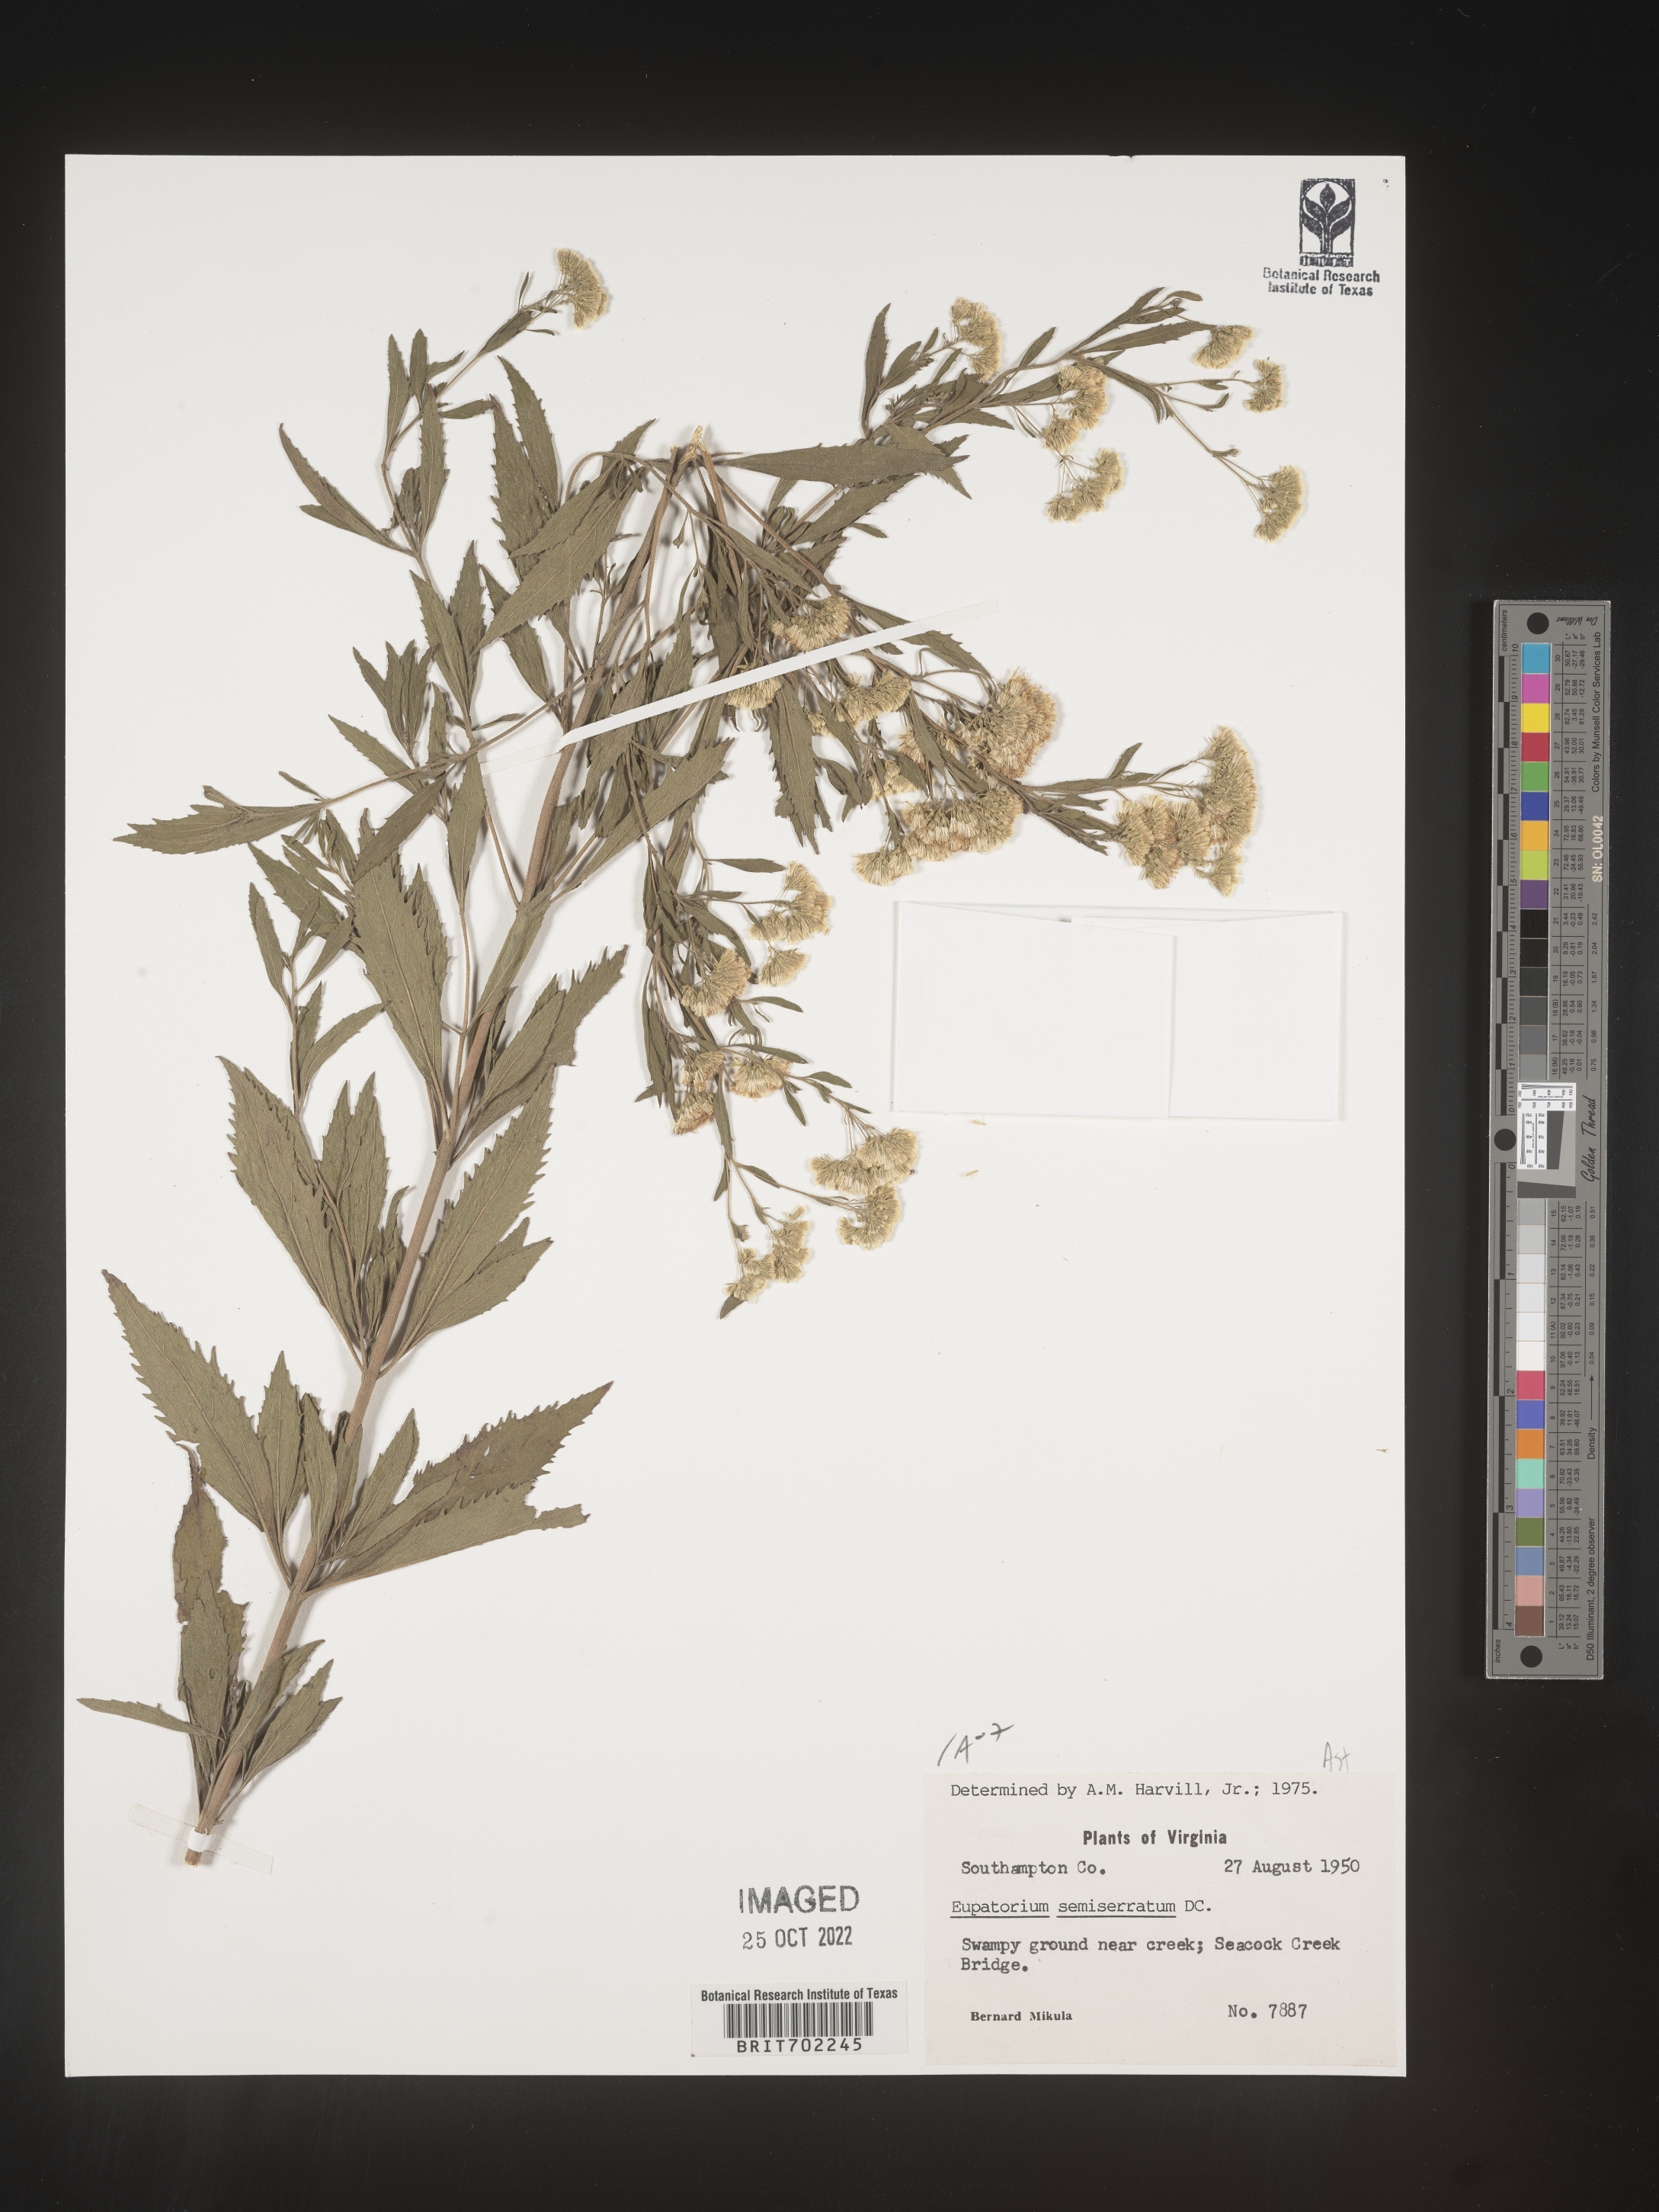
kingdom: Plantae
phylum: Tracheophyta
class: Magnoliopsida
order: Asterales
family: Asteraceae
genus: Eupatorium
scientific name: Eupatorium semiserratum
